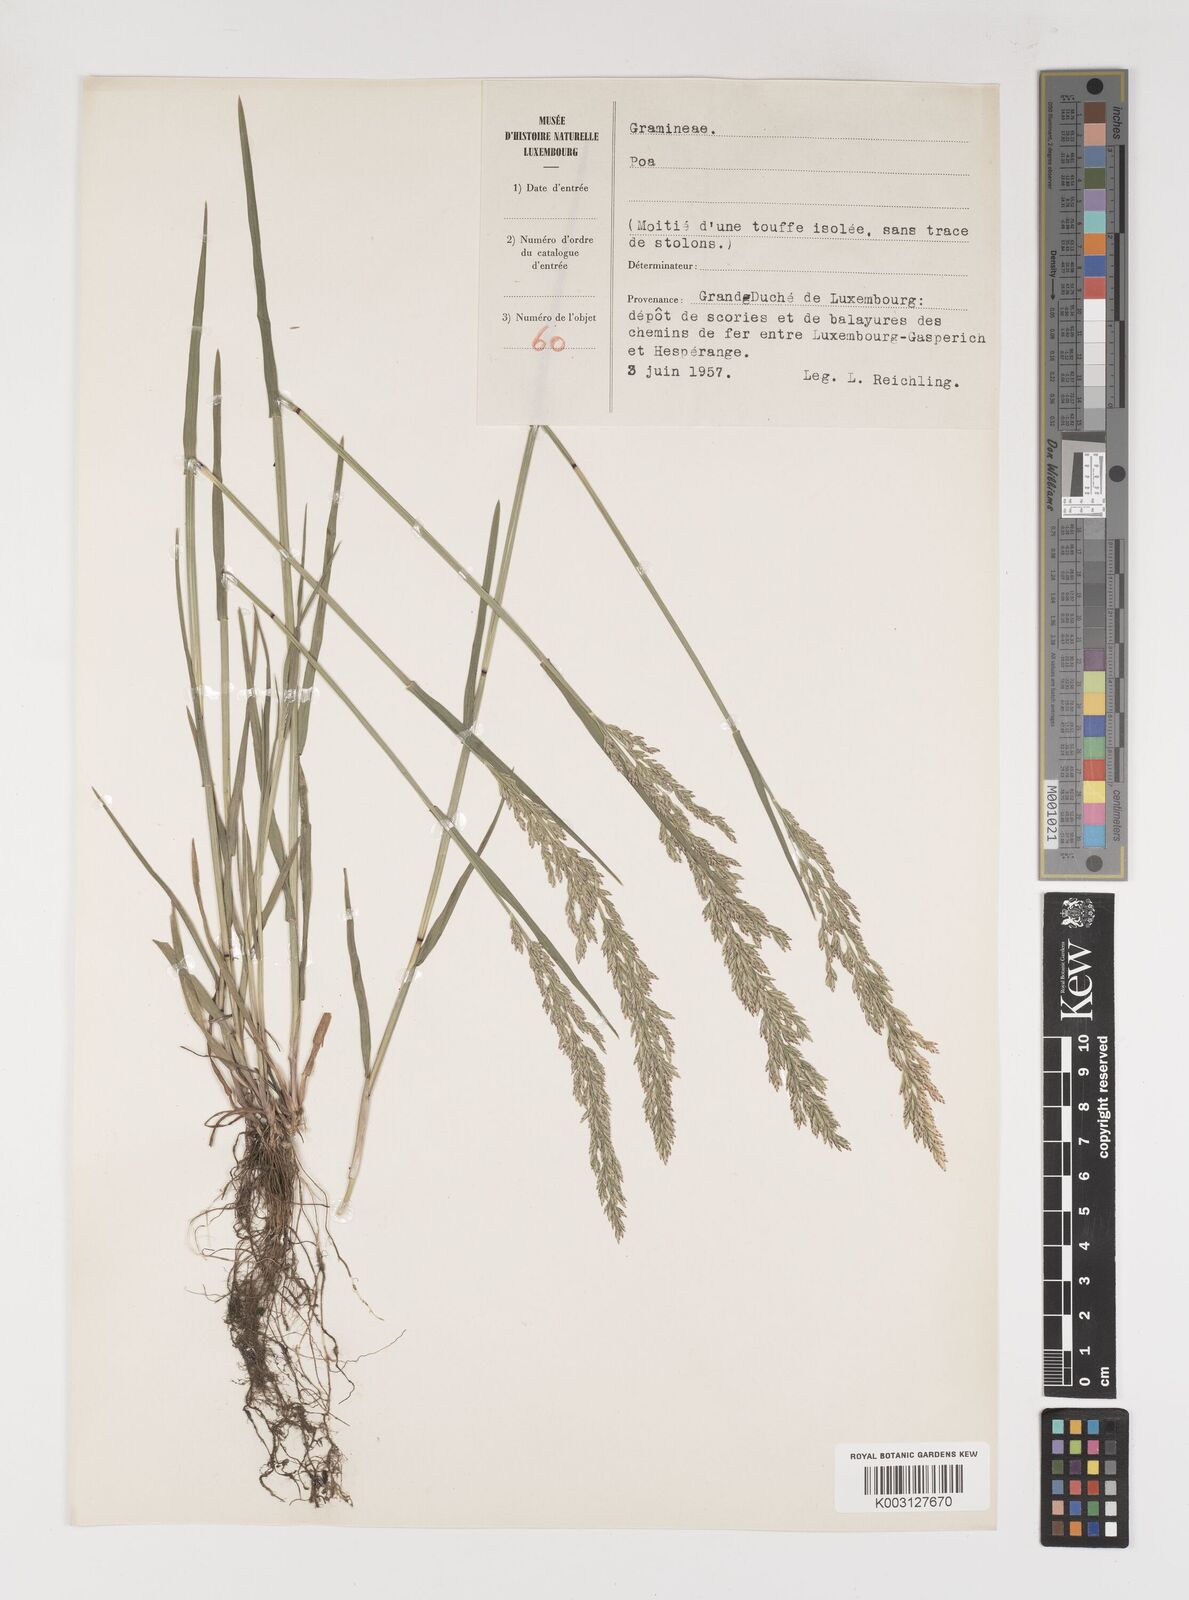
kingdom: Plantae
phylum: Tracheophyta
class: Liliopsida
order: Poales
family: Poaceae
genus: Poa
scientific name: Poa
